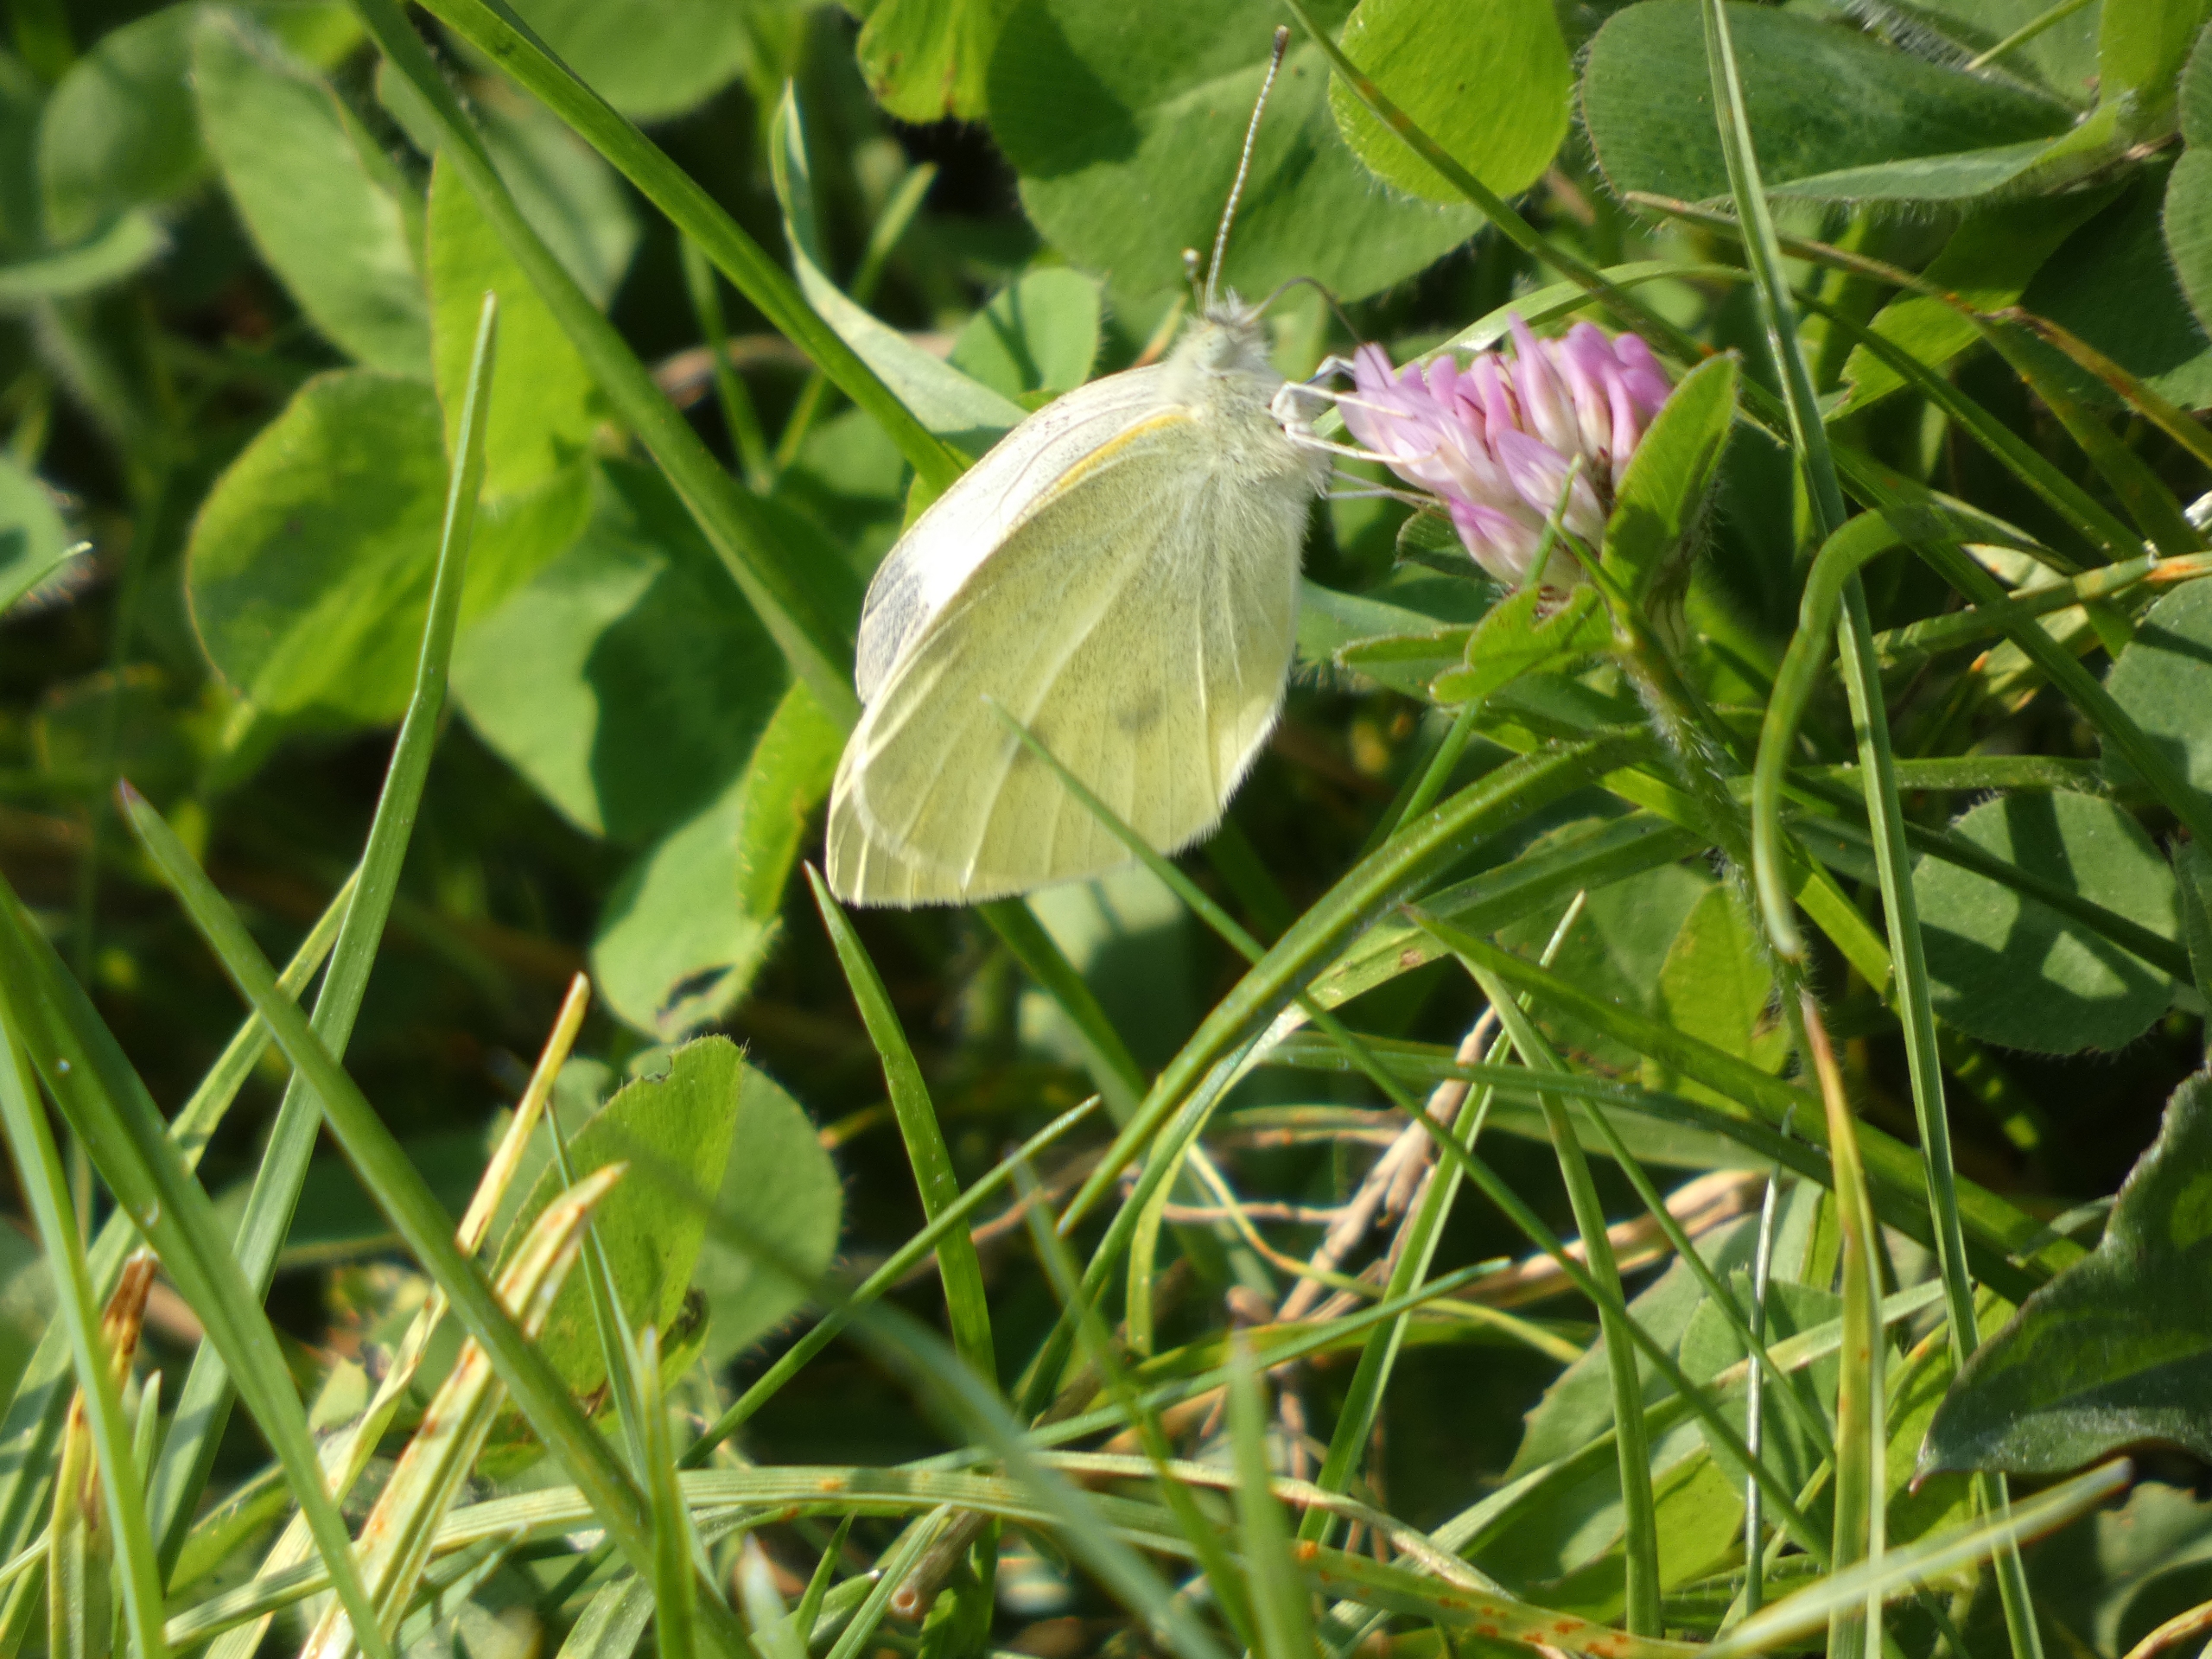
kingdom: Animalia
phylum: Arthropoda
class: Insecta
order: Lepidoptera
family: Pieridae
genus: Pieris
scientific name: Pieris rapae
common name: Lille kålsommerfugl
